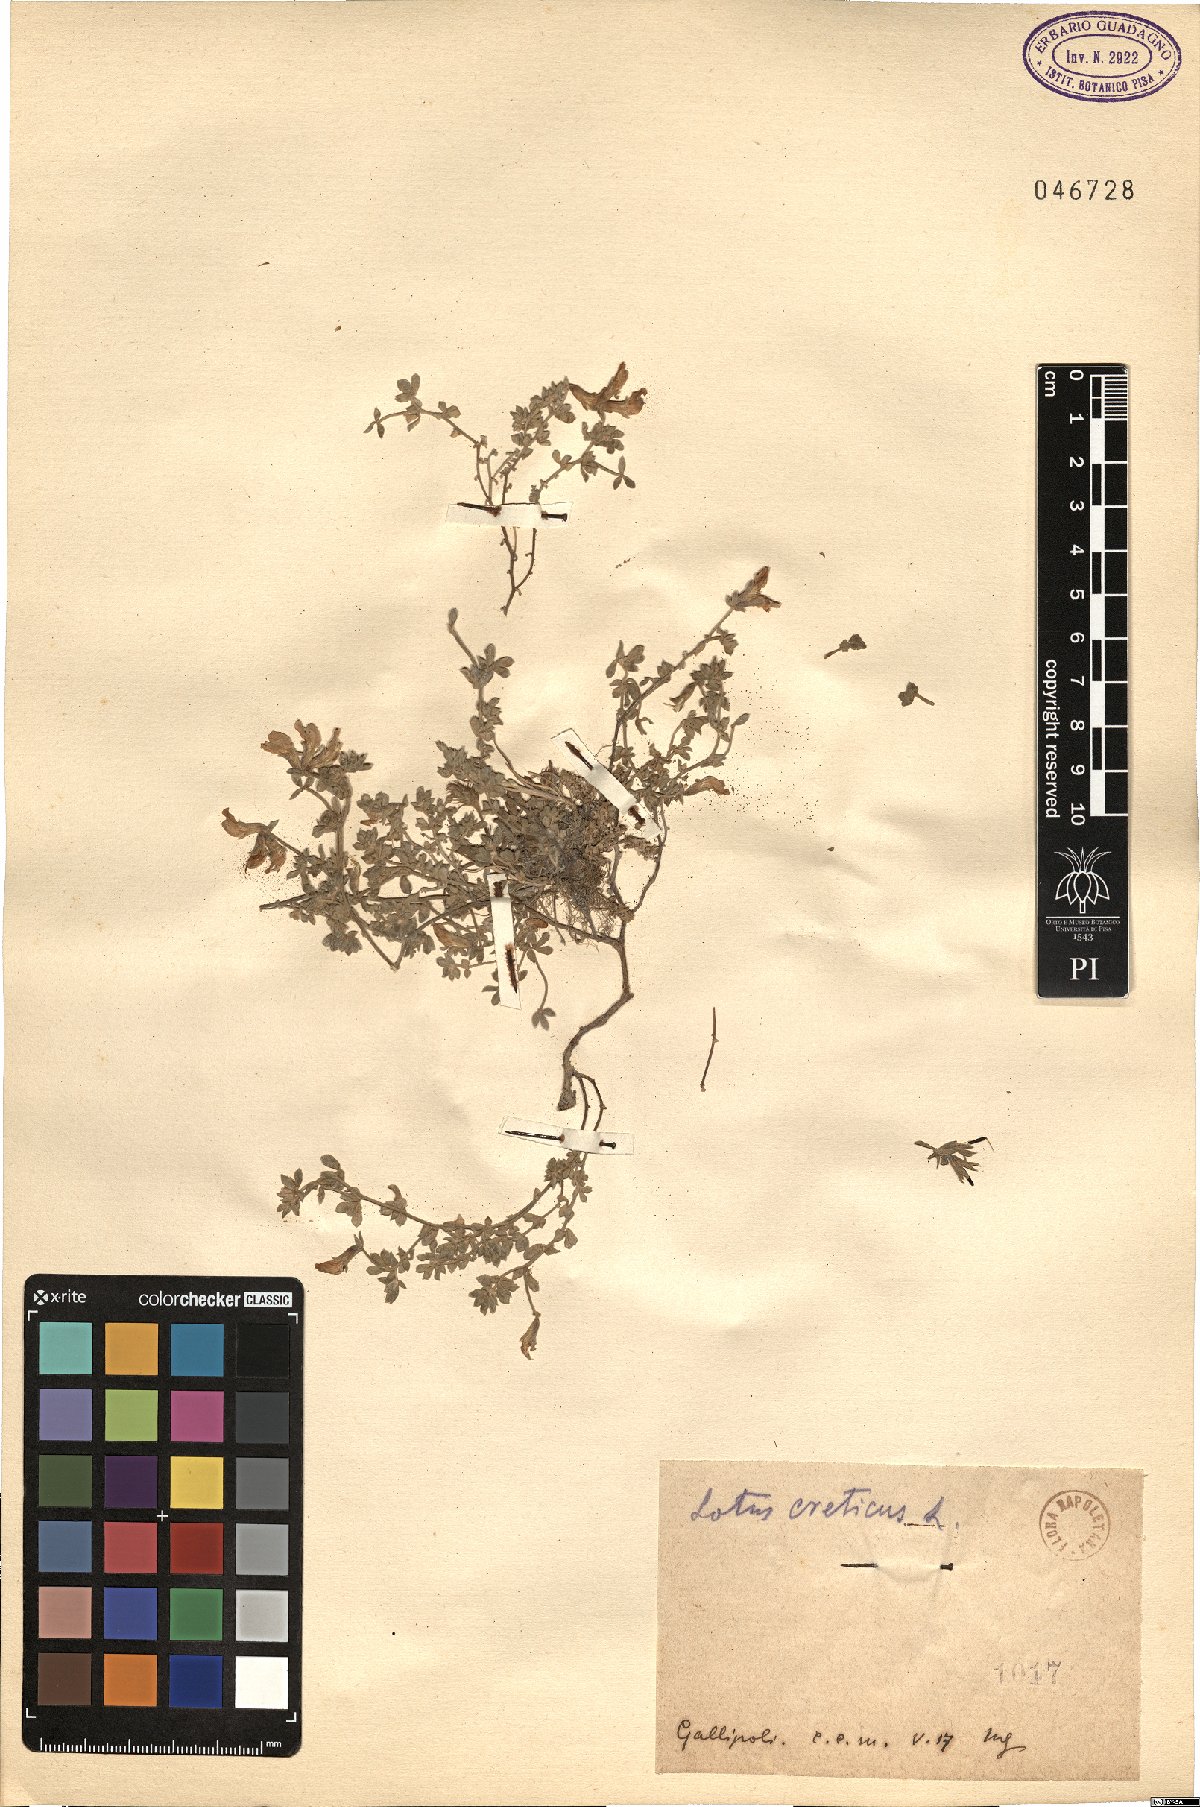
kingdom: Plantae
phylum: Tracheophyta
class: Magnoliopsida
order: Fabales
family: Fabaceae
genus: Lotus
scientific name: Lotus creticus
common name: Cretan bird's-foot trefoil
